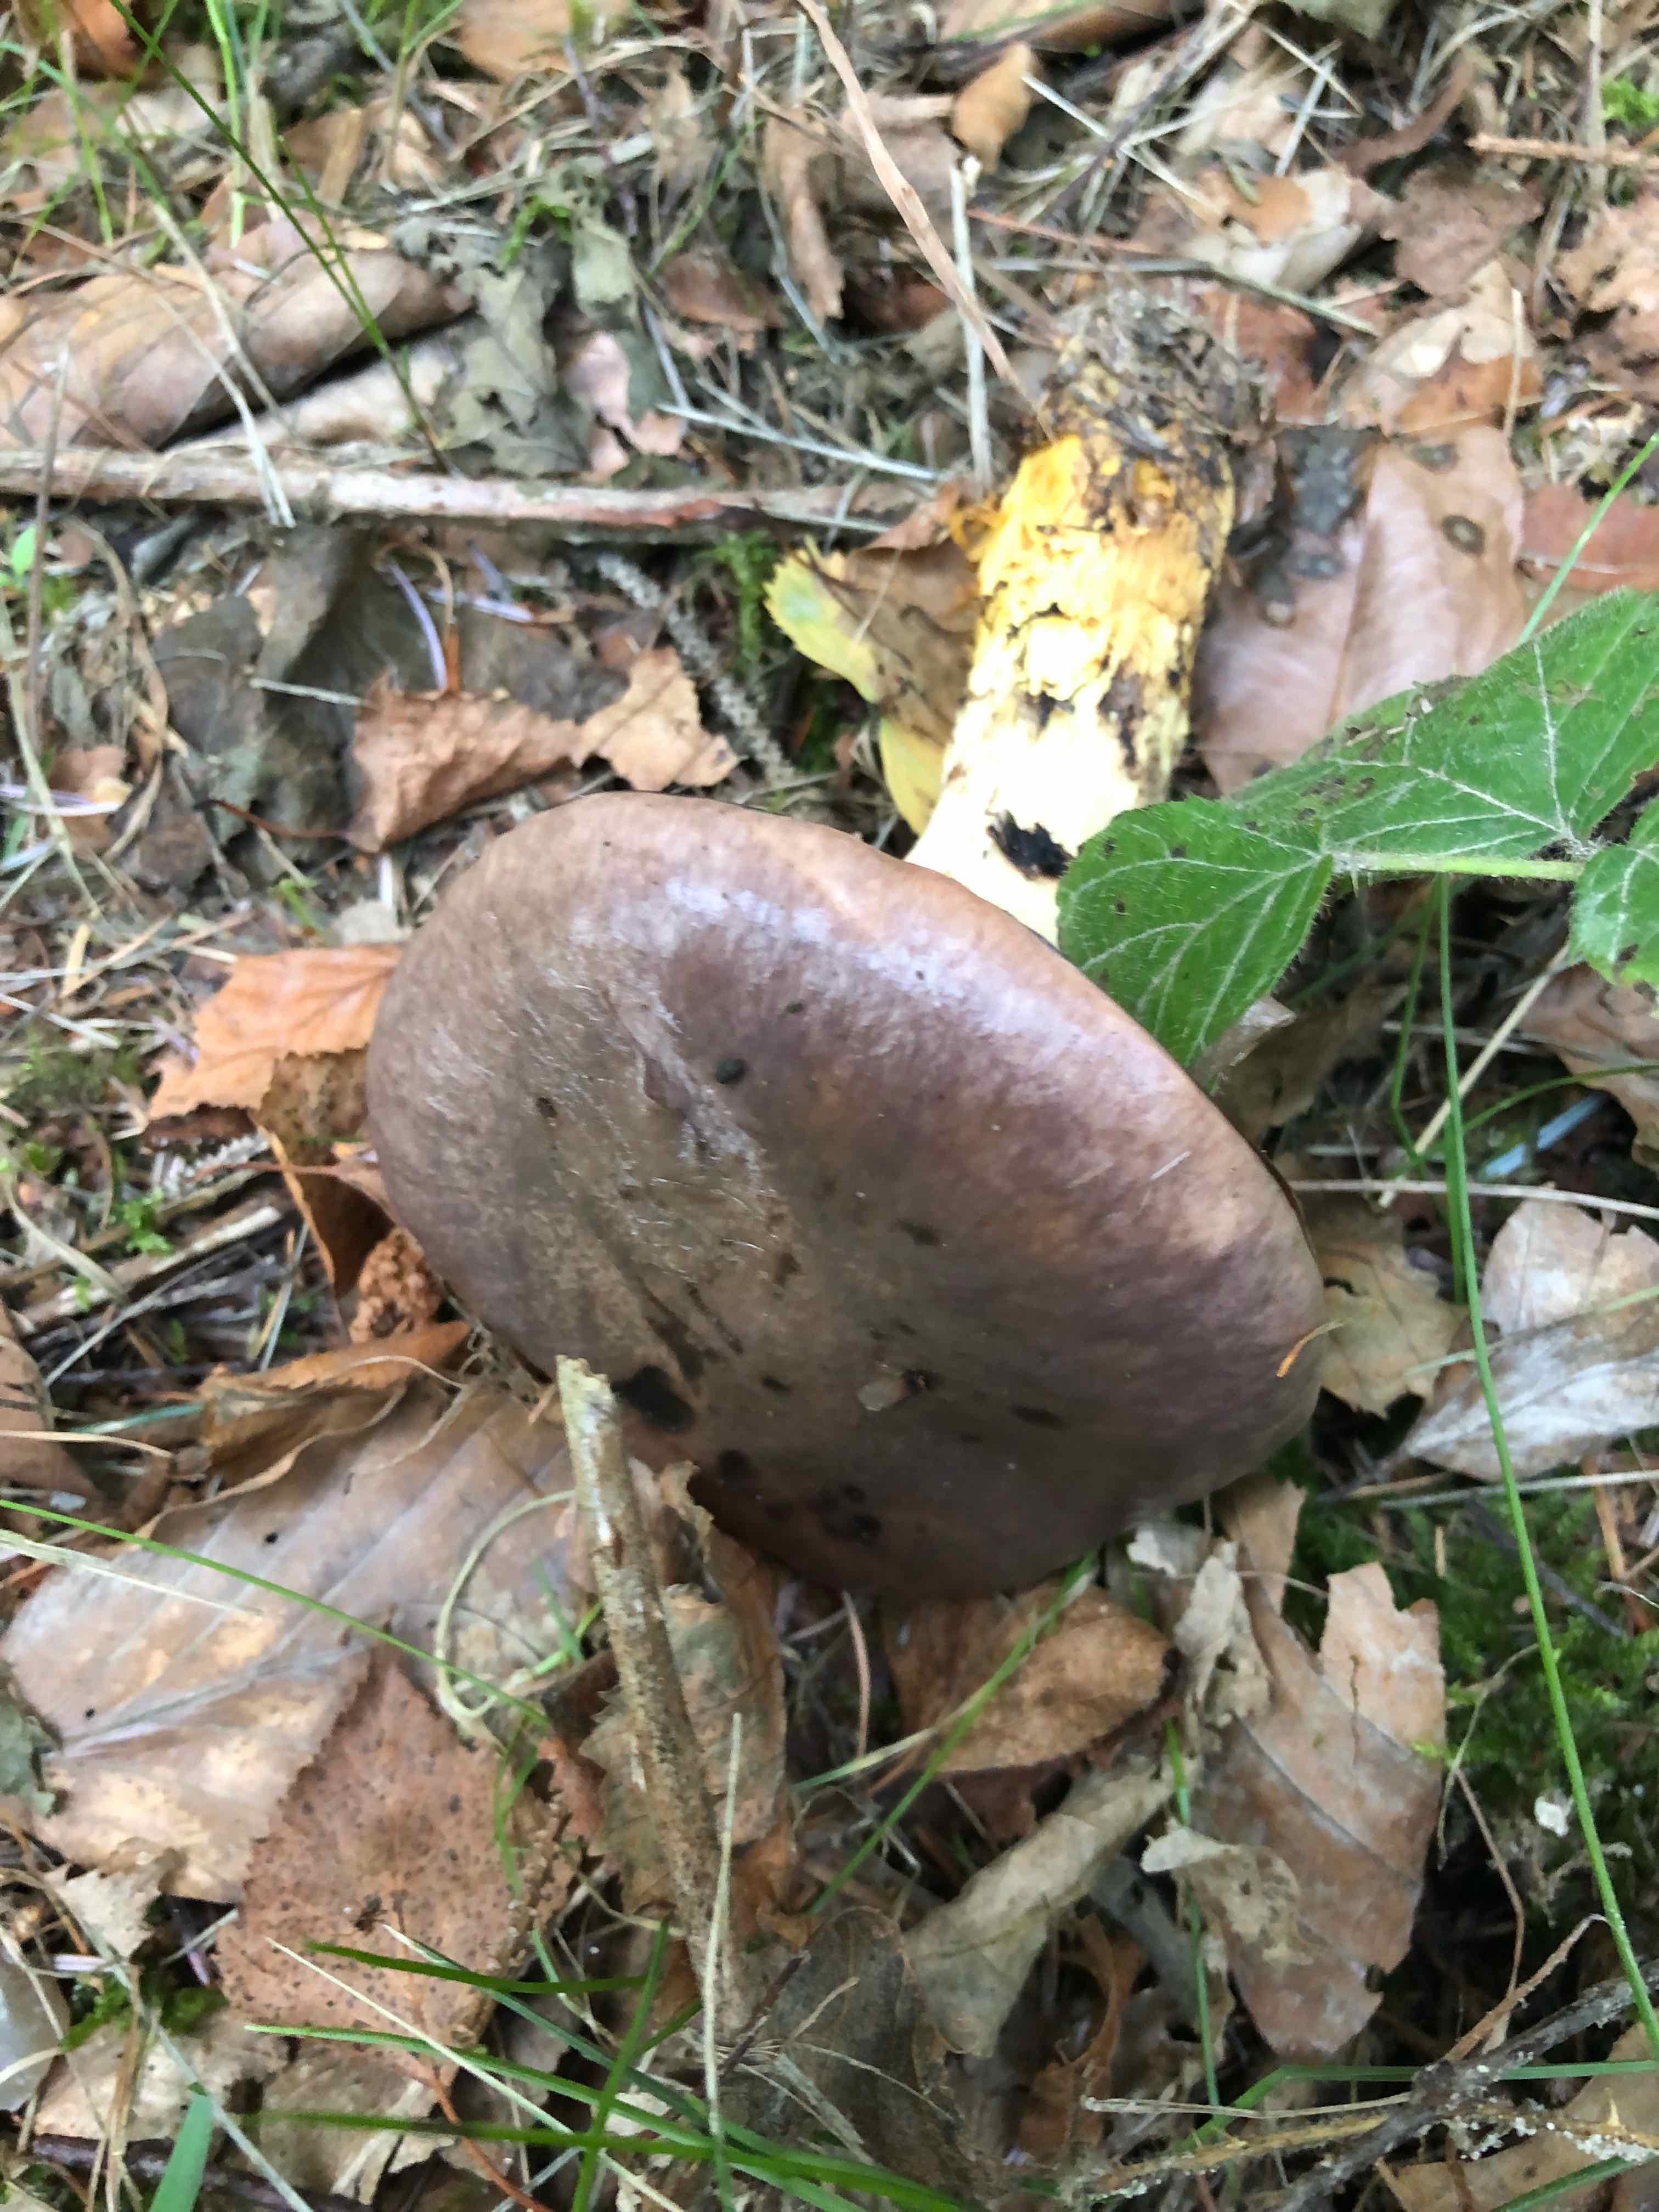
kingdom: Fungi
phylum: Basidiomycota
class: Agaricomycetes
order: Boletales
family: Gomphidiaceae
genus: Gomphidius
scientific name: Gomphidius glutinosus
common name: grå slimslør
